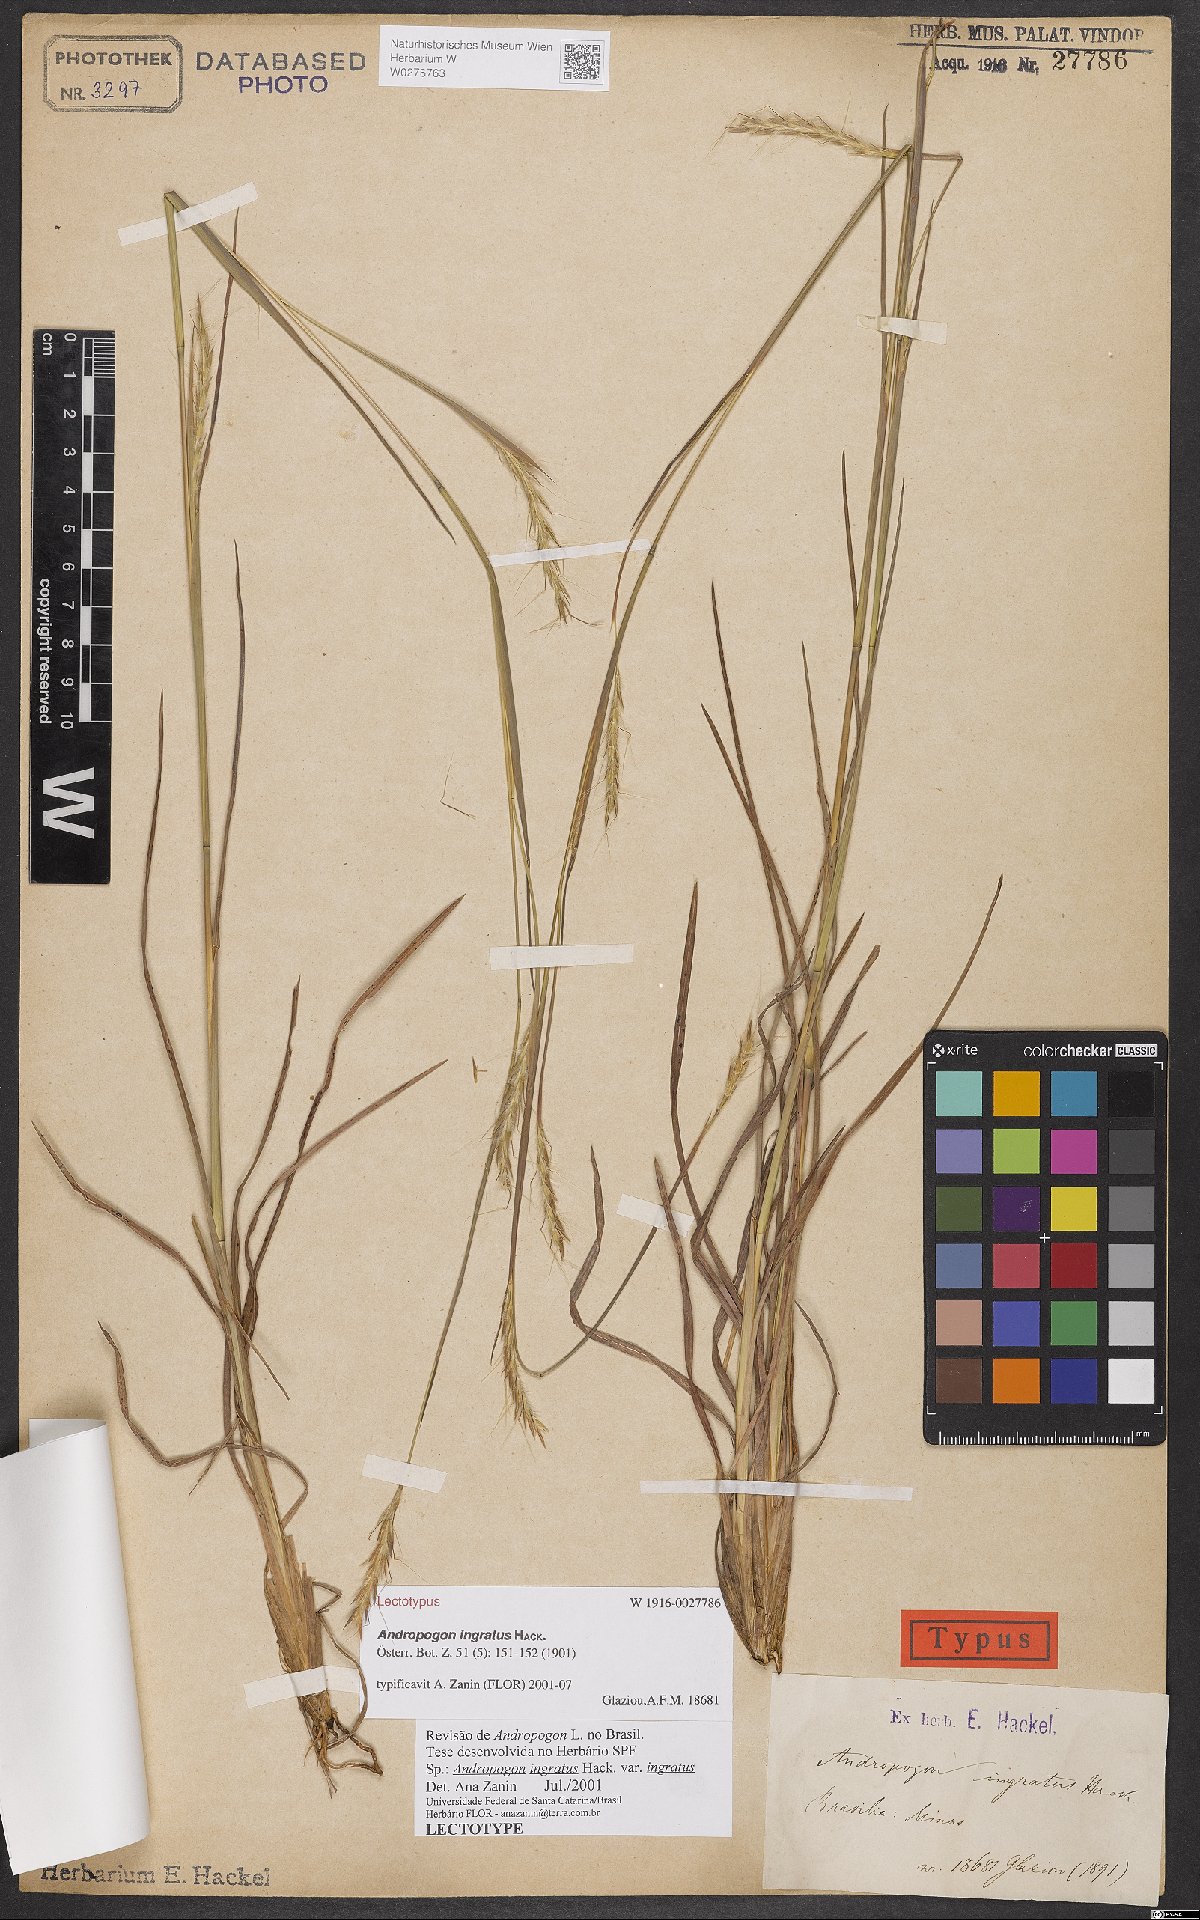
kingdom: Plantae
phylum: Tracheophyta
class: Liliopsida
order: Poales
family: Poaceae
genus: Andropogon
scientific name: Andropogon ingratus
